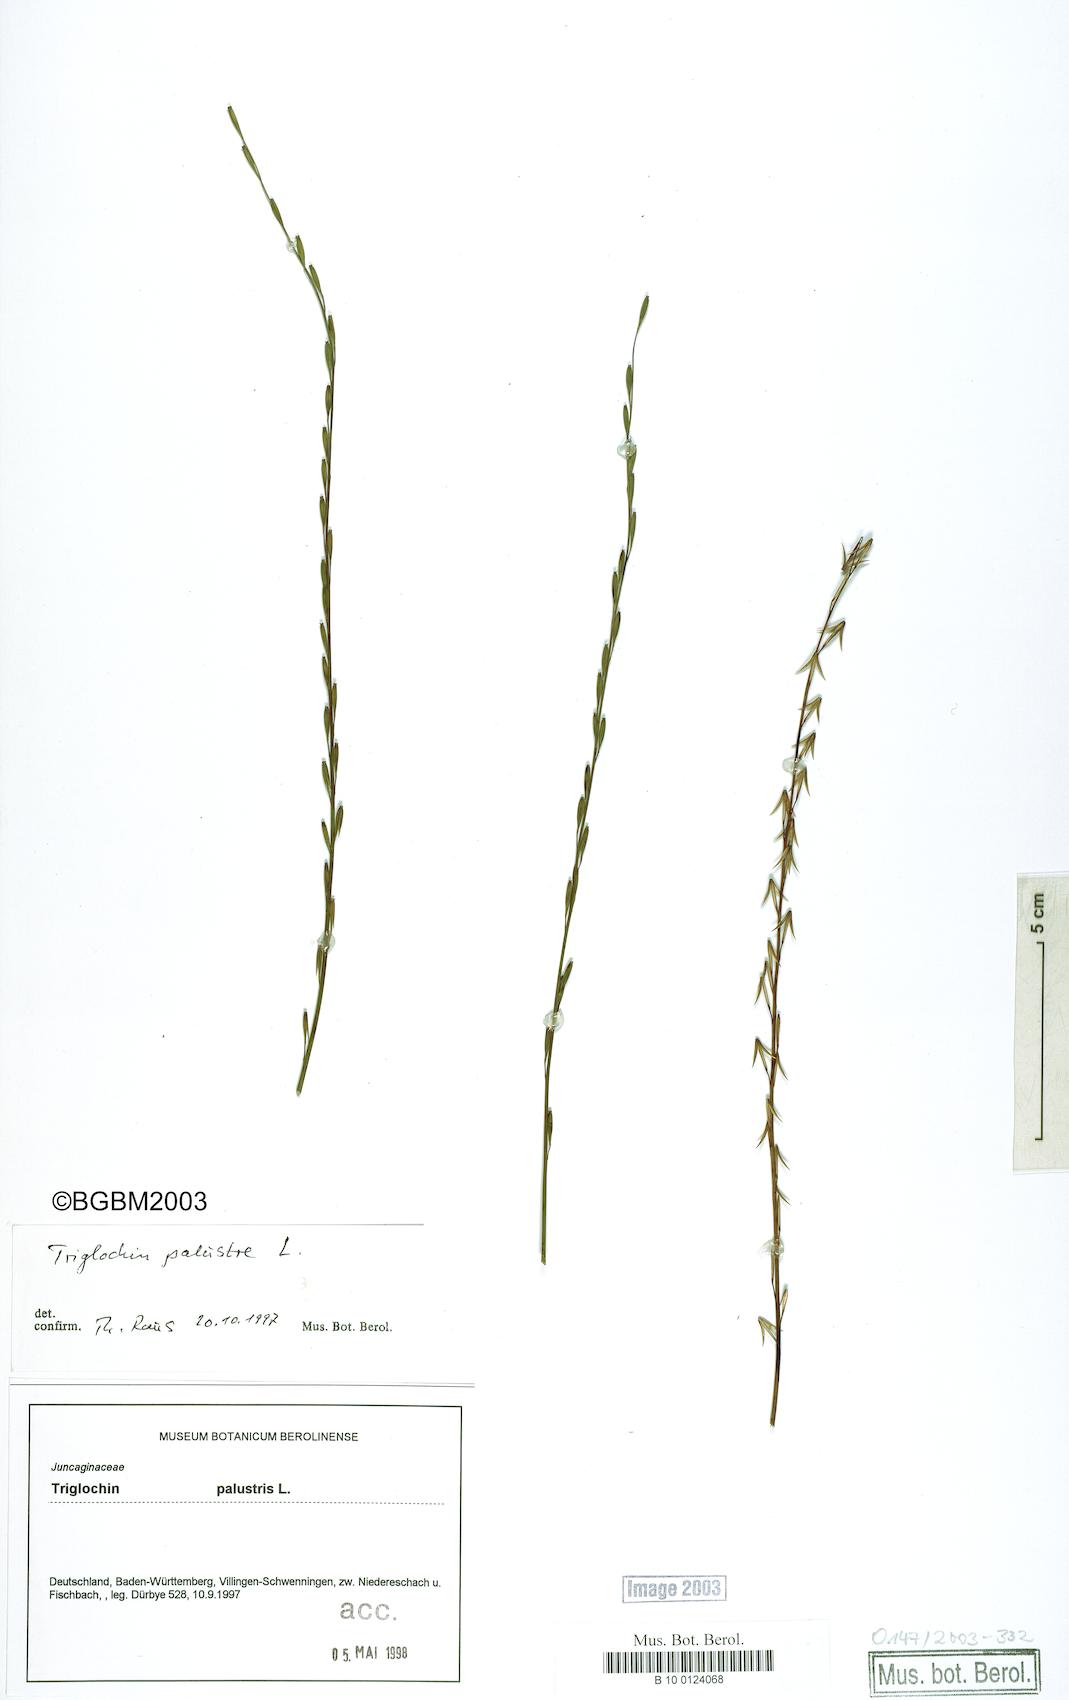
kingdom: Plantae
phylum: Tracheophyta
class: Liliopsida
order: Alismatales
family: Juncaginaceae
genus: Triglochin
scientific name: Triglochin palustris
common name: Marsh arrowgrass
